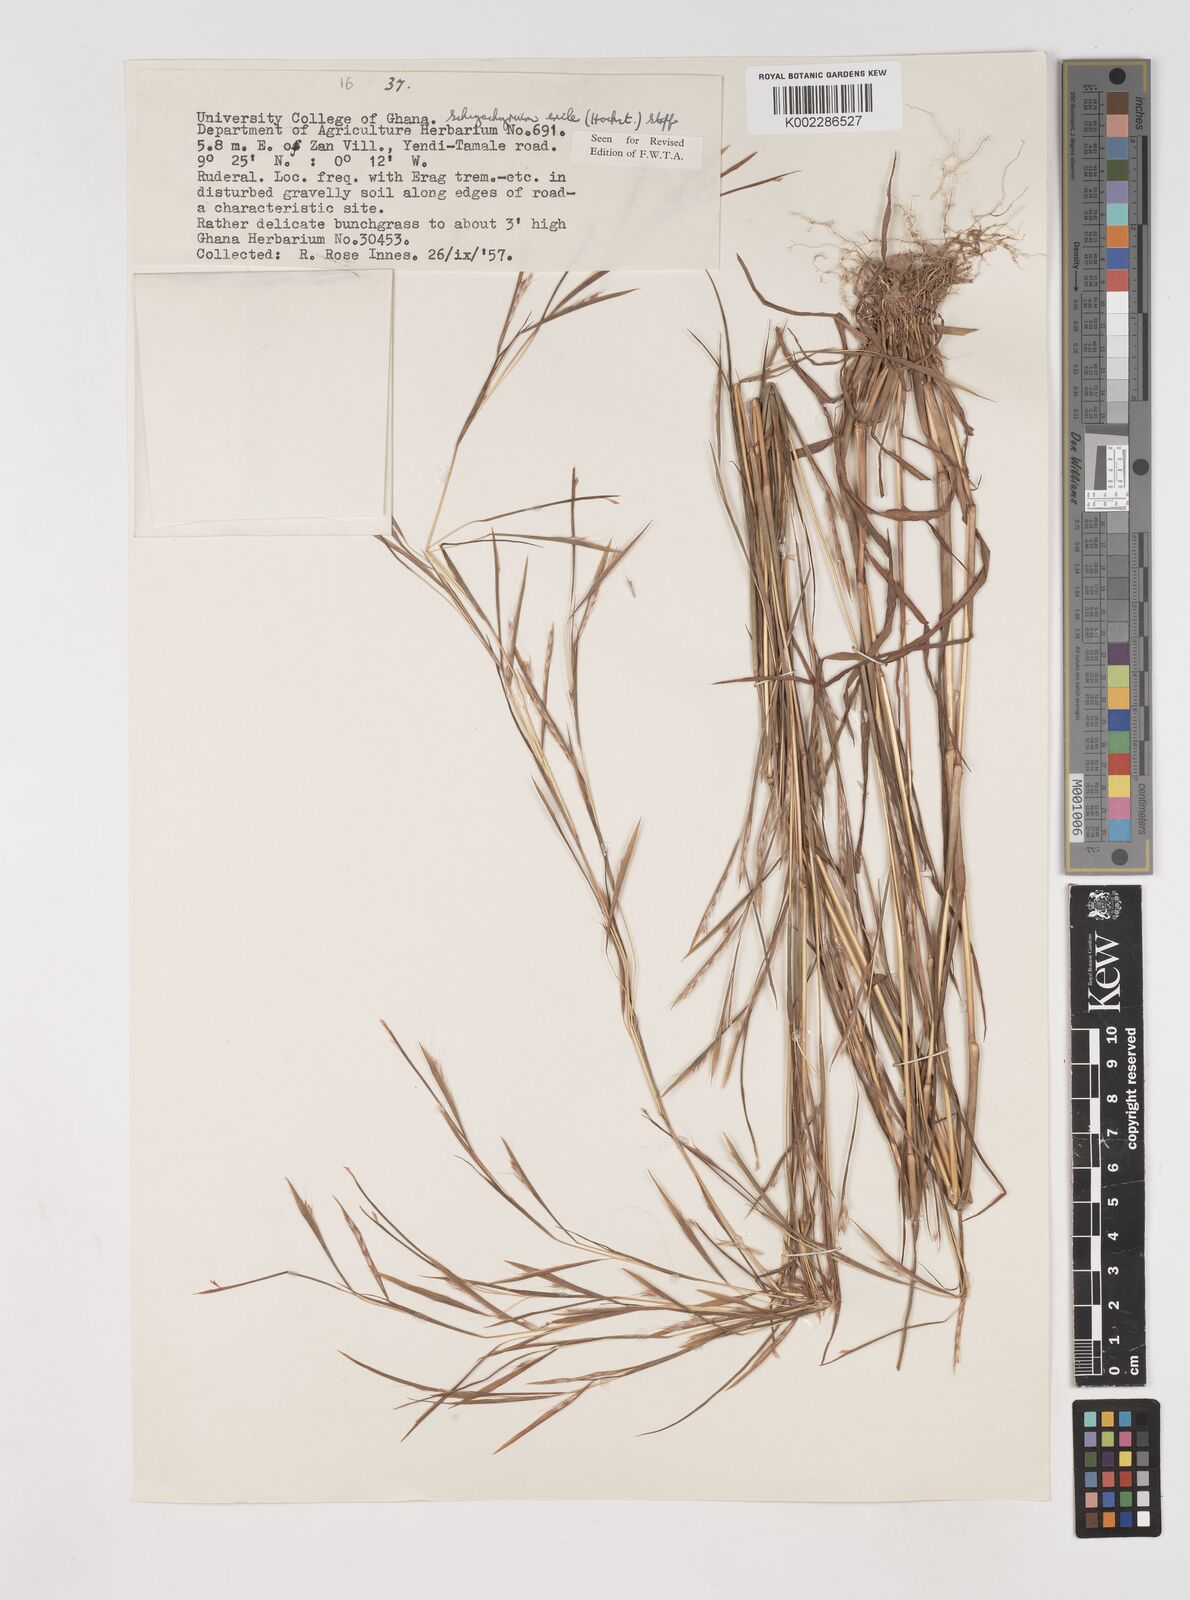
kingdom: Plantae
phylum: Tracheophyta
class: Liliopsida
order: Poales
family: Poaceae
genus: Schizachyrium
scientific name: Schizachyrium exile
